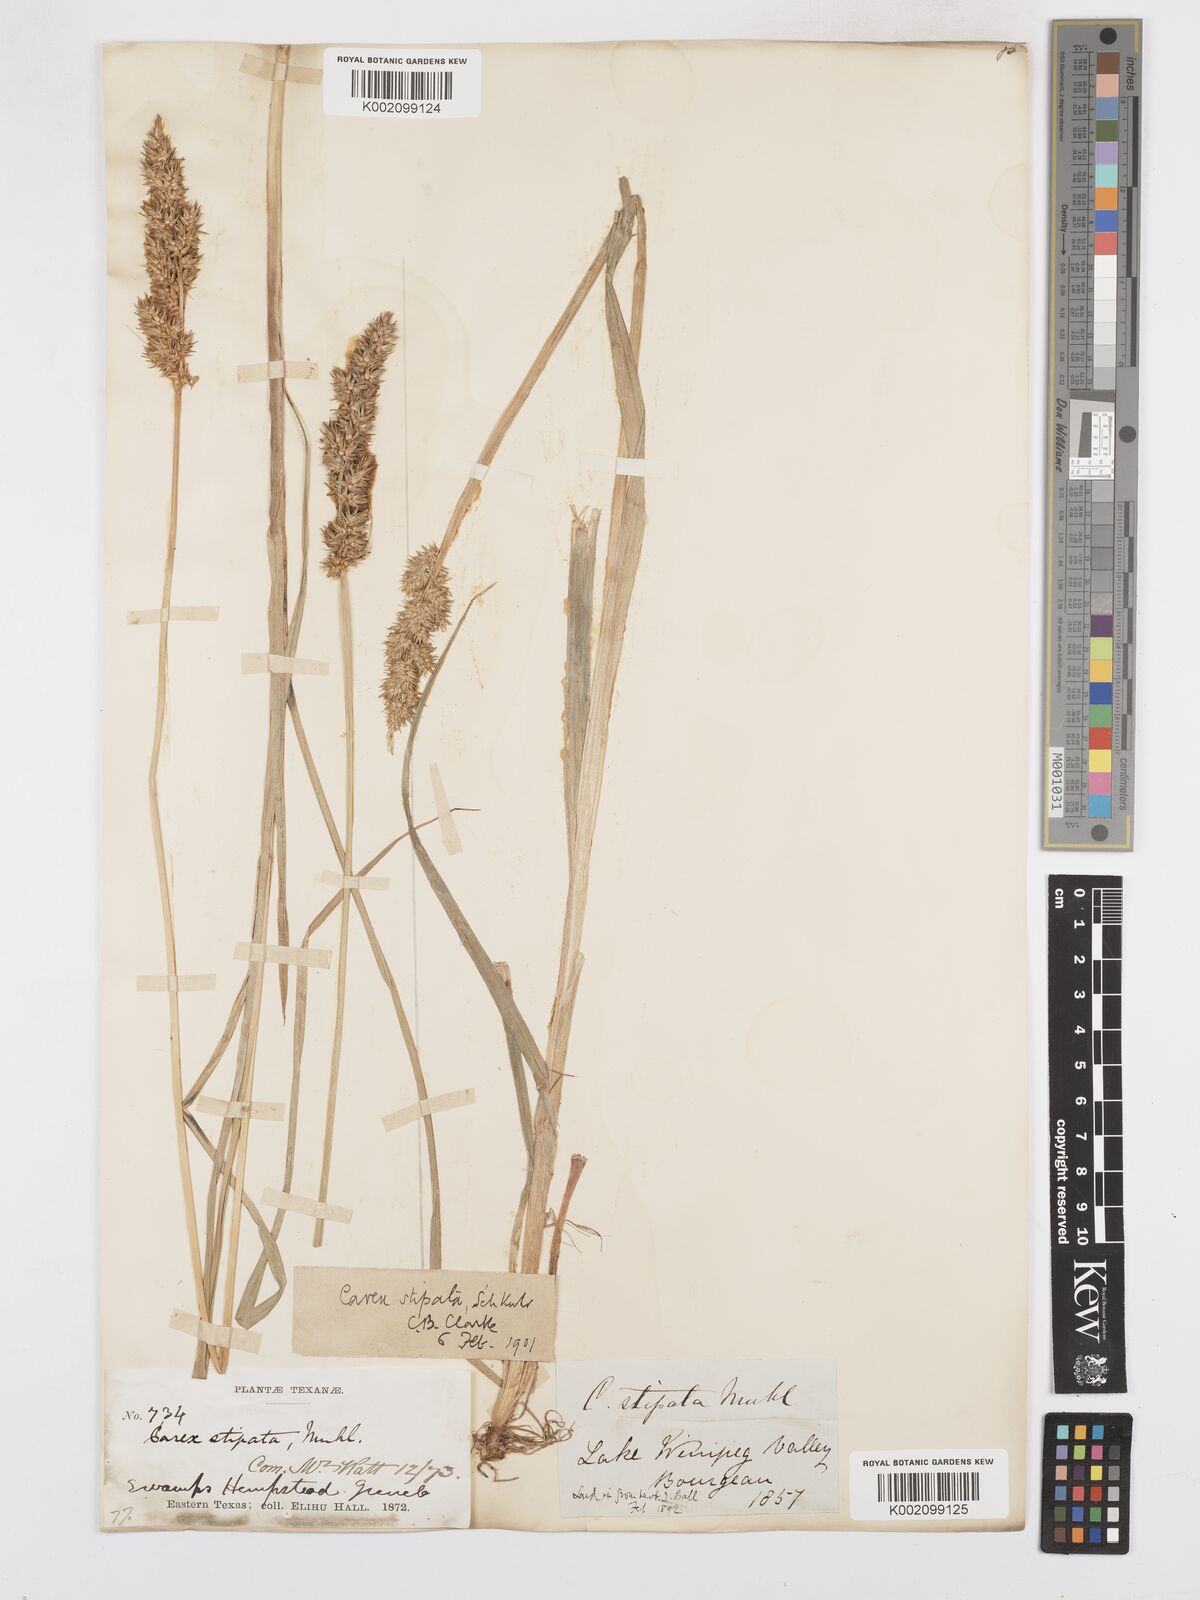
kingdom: Plantae
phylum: Tracheophyta
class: Liliopsida
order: Poales
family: Cyperaceae
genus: Carex
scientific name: Carex stipata
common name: Awl-fruited sedge
